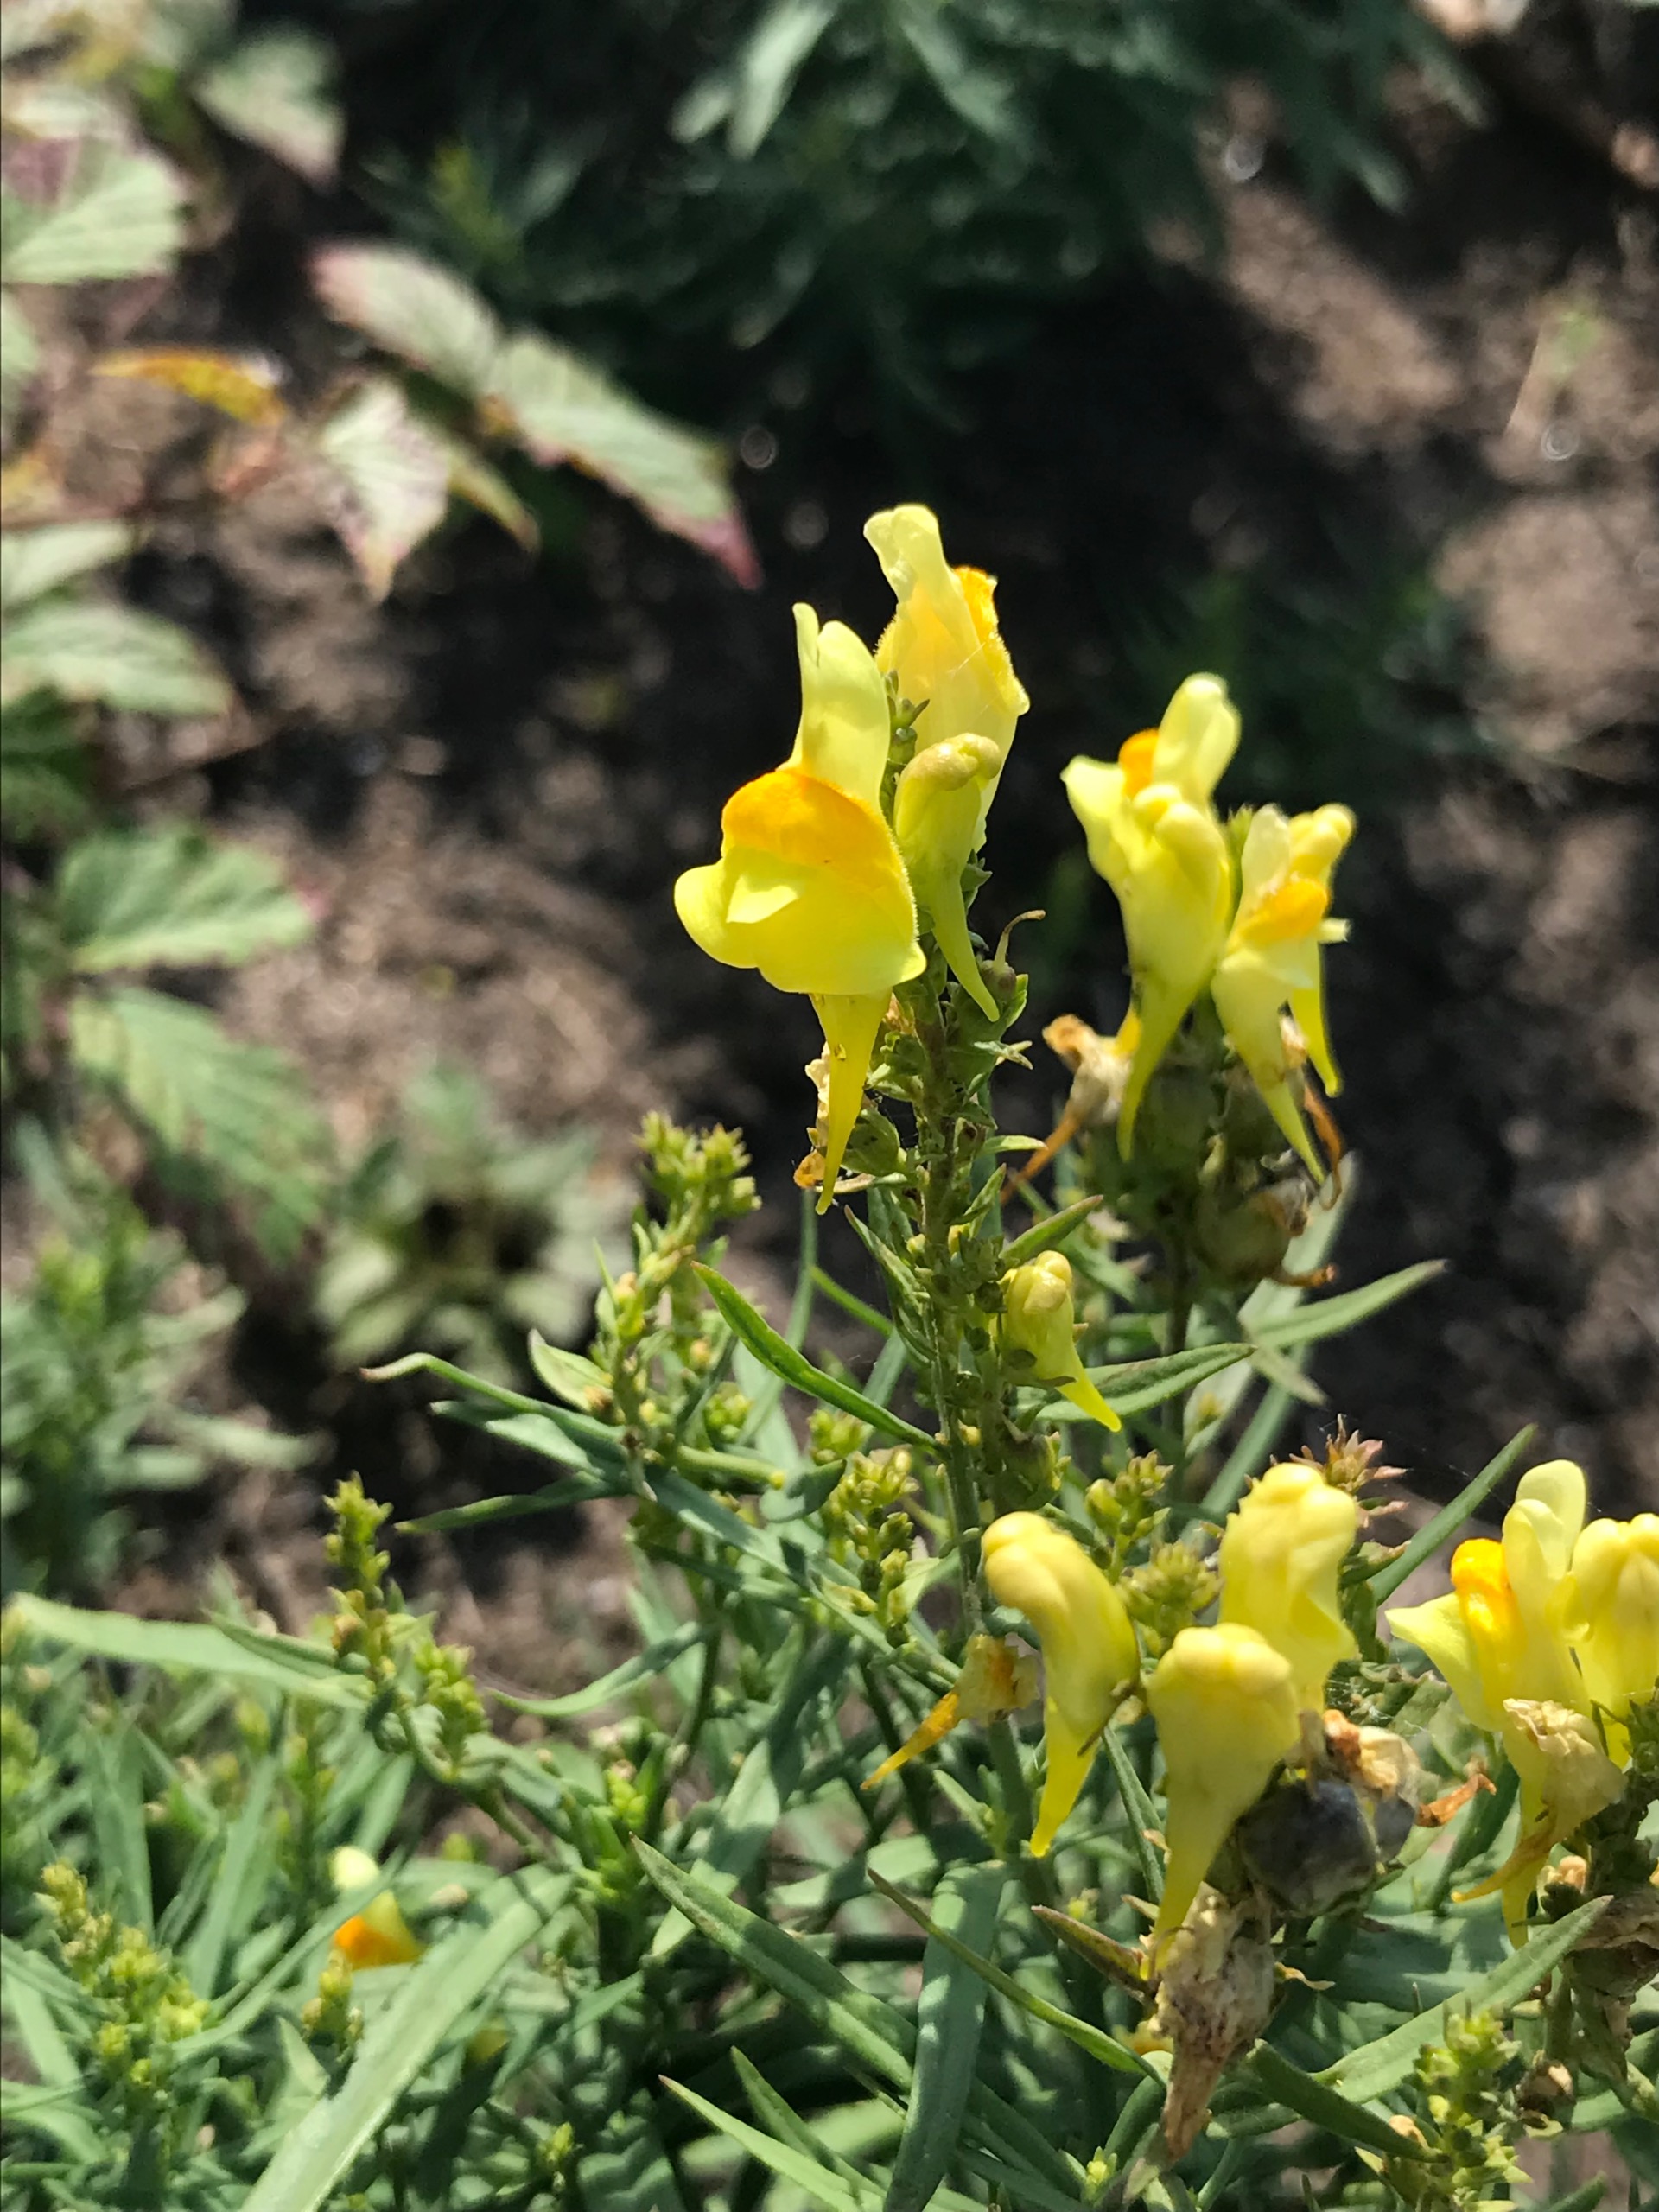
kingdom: Plantae
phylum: Tracheophyta
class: Magnoliopsida
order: Lamiales
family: Plantaginaceae
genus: Linaria
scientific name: Linaria vulgaris
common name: Almindelig torskemund
